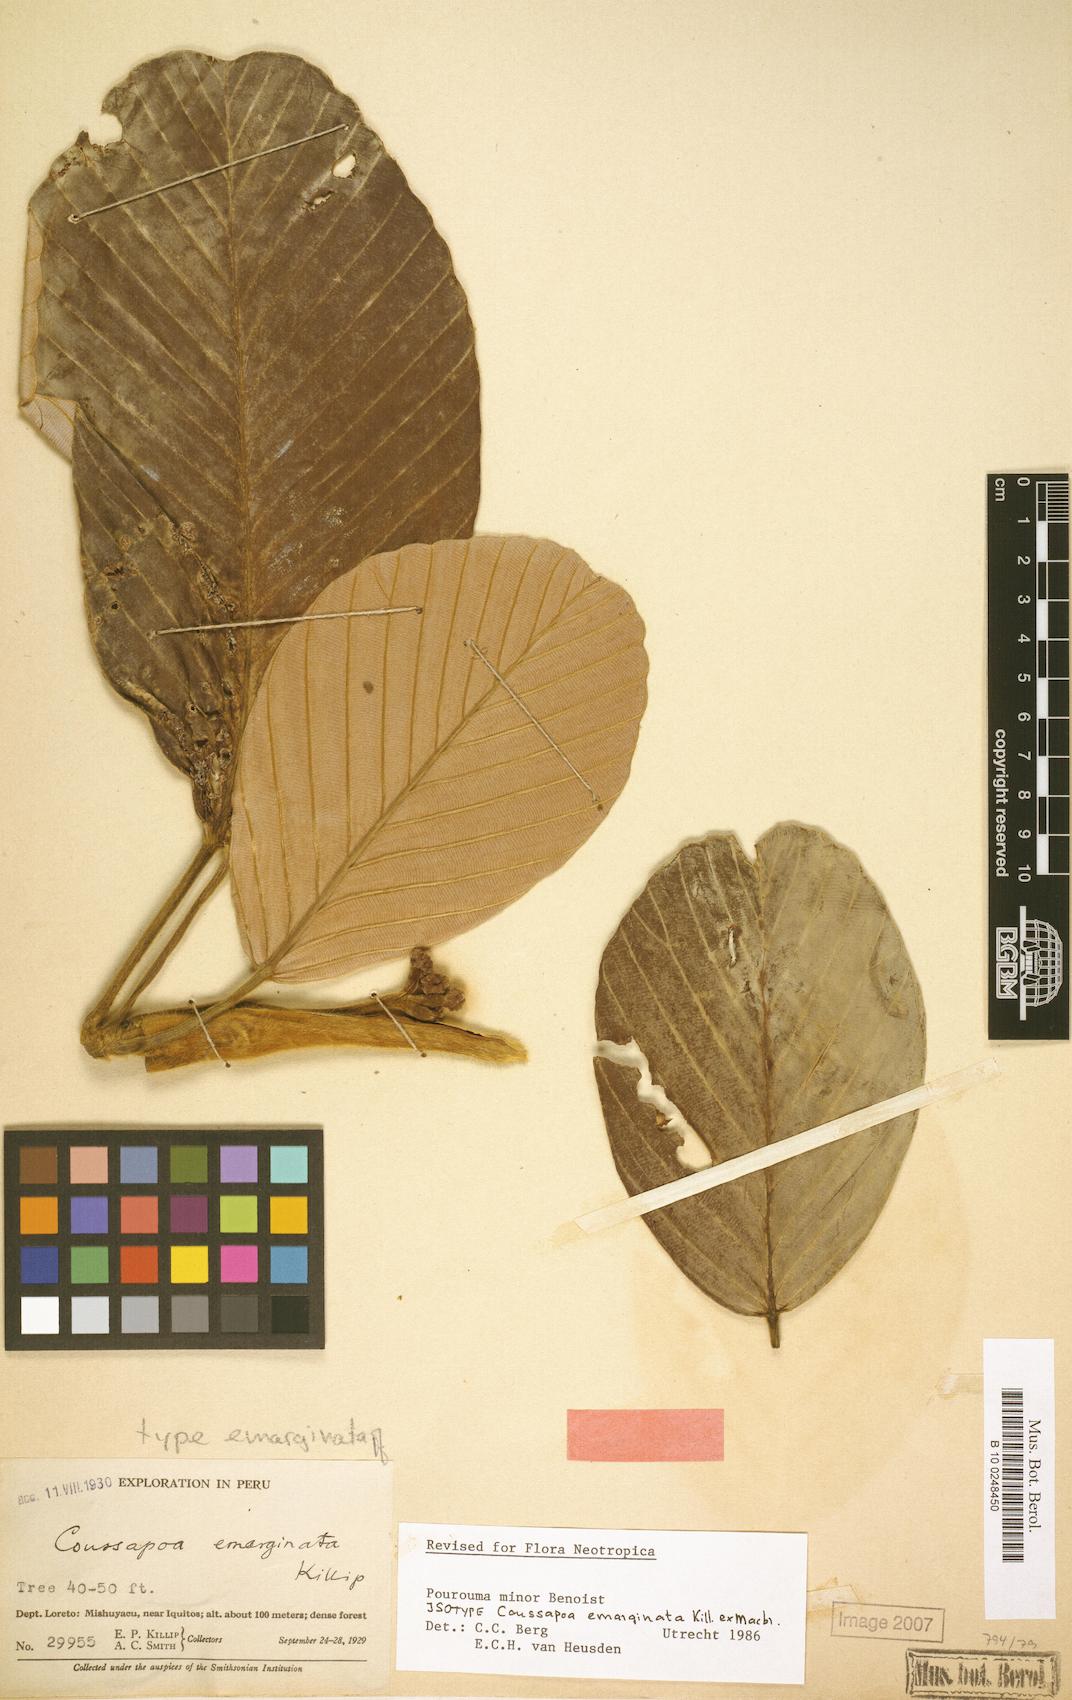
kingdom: Plantae
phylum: Tracheophyta
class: Magnoliopsida
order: Rosales
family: Urticaceae
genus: Pourouma
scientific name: Pourouma minor
